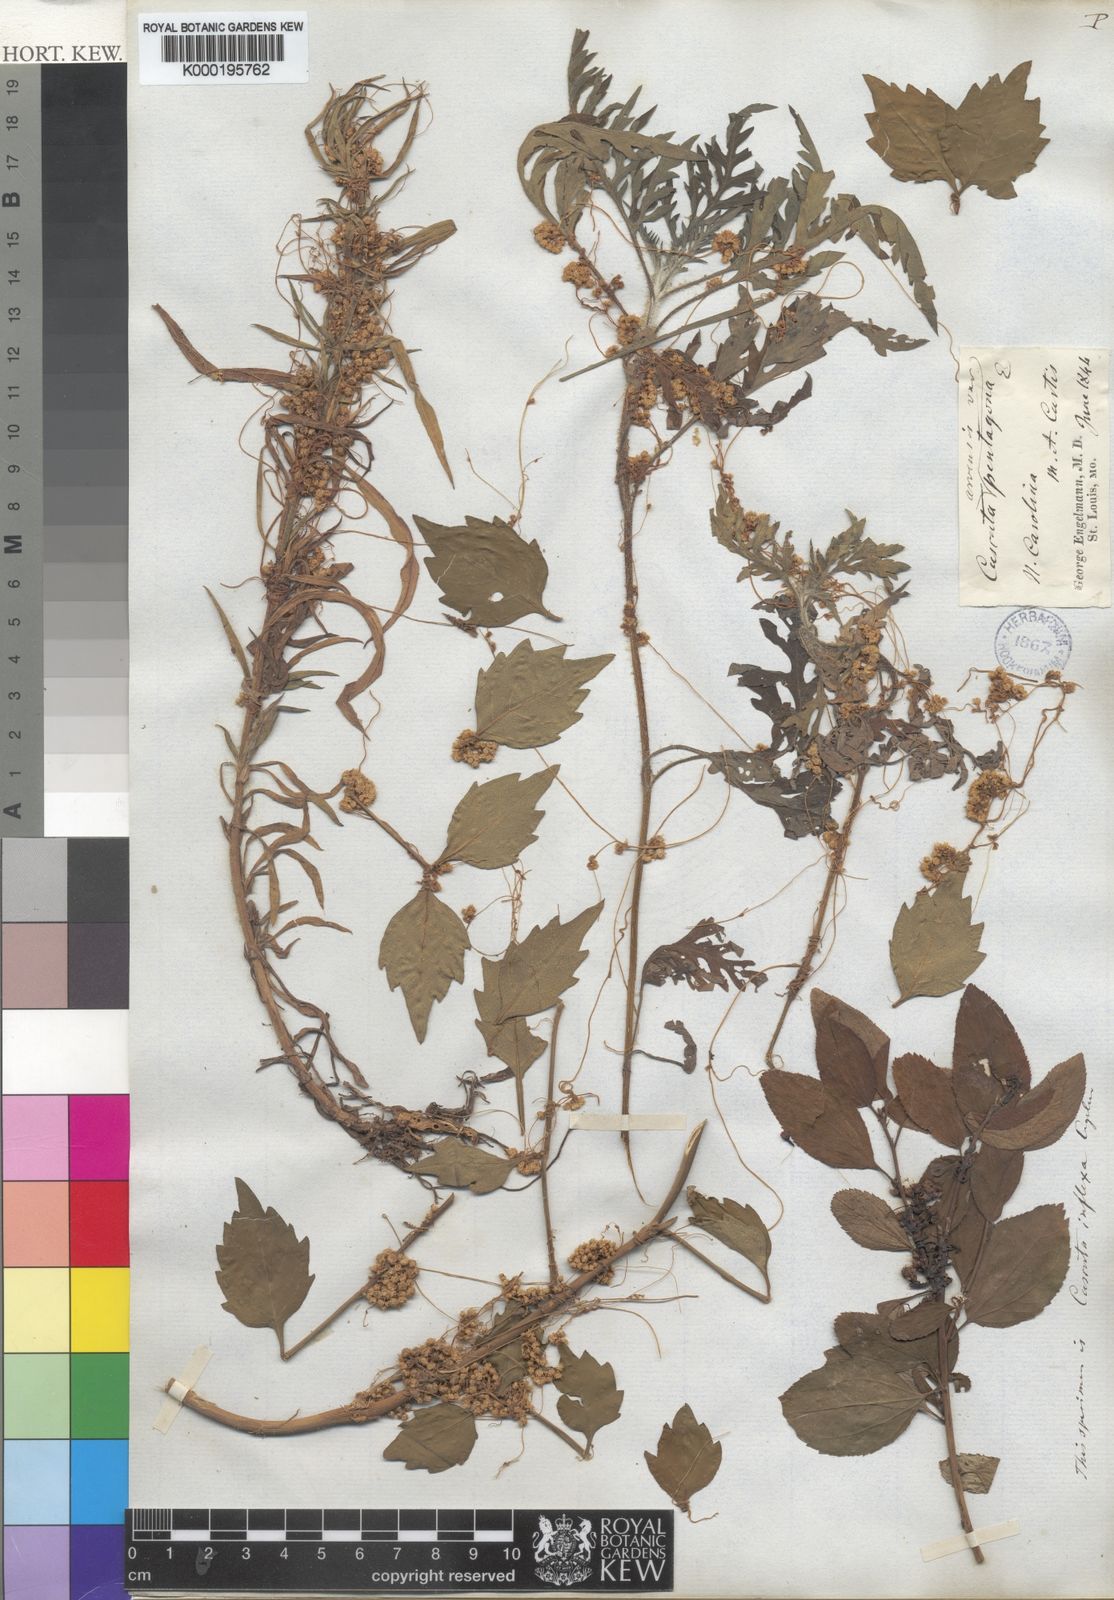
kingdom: Plantae
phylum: Tracheophyta
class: Magnoliopsida
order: Solanales
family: Convolvulaceae
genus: Cuscuta
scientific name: Cuscuta pentagona
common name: Fiveangled dodder
